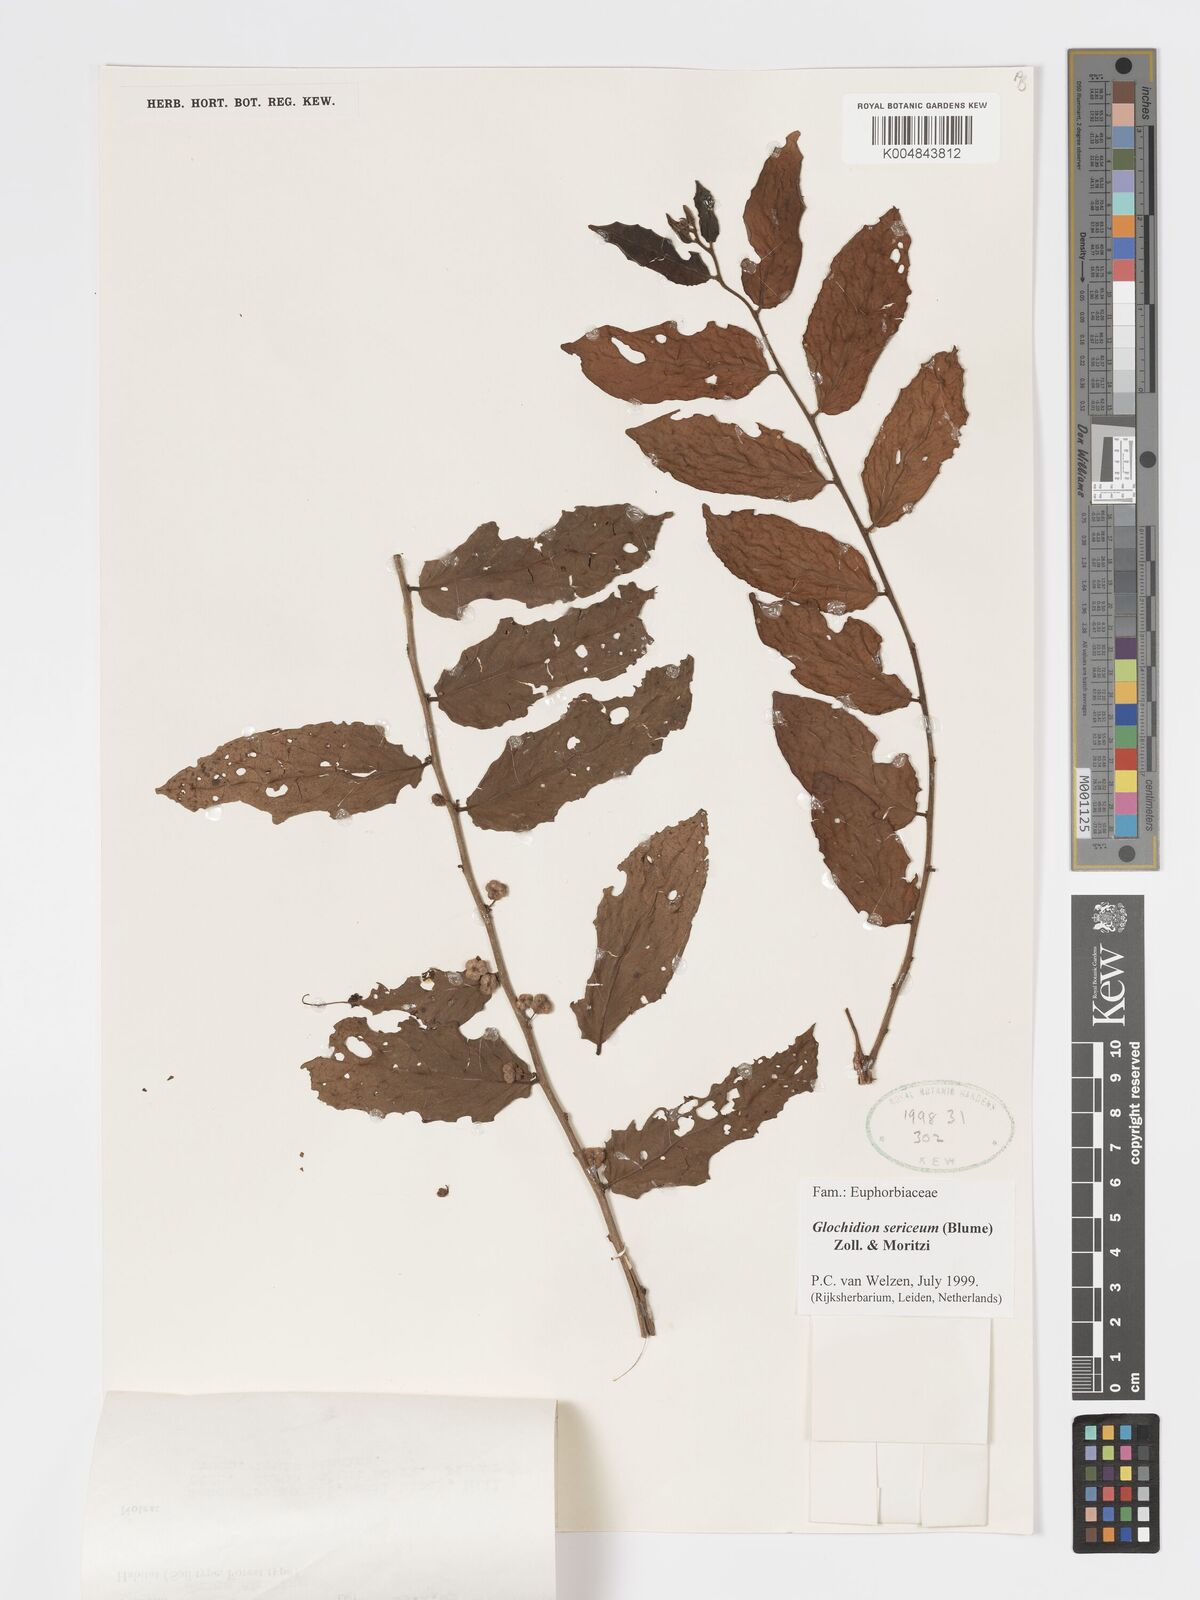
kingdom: Plantae
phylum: Tracheophyta
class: Magnoliopsida
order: Malpighiales
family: Phyllanthaceae
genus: Glochidion
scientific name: Glochidion sericeum
